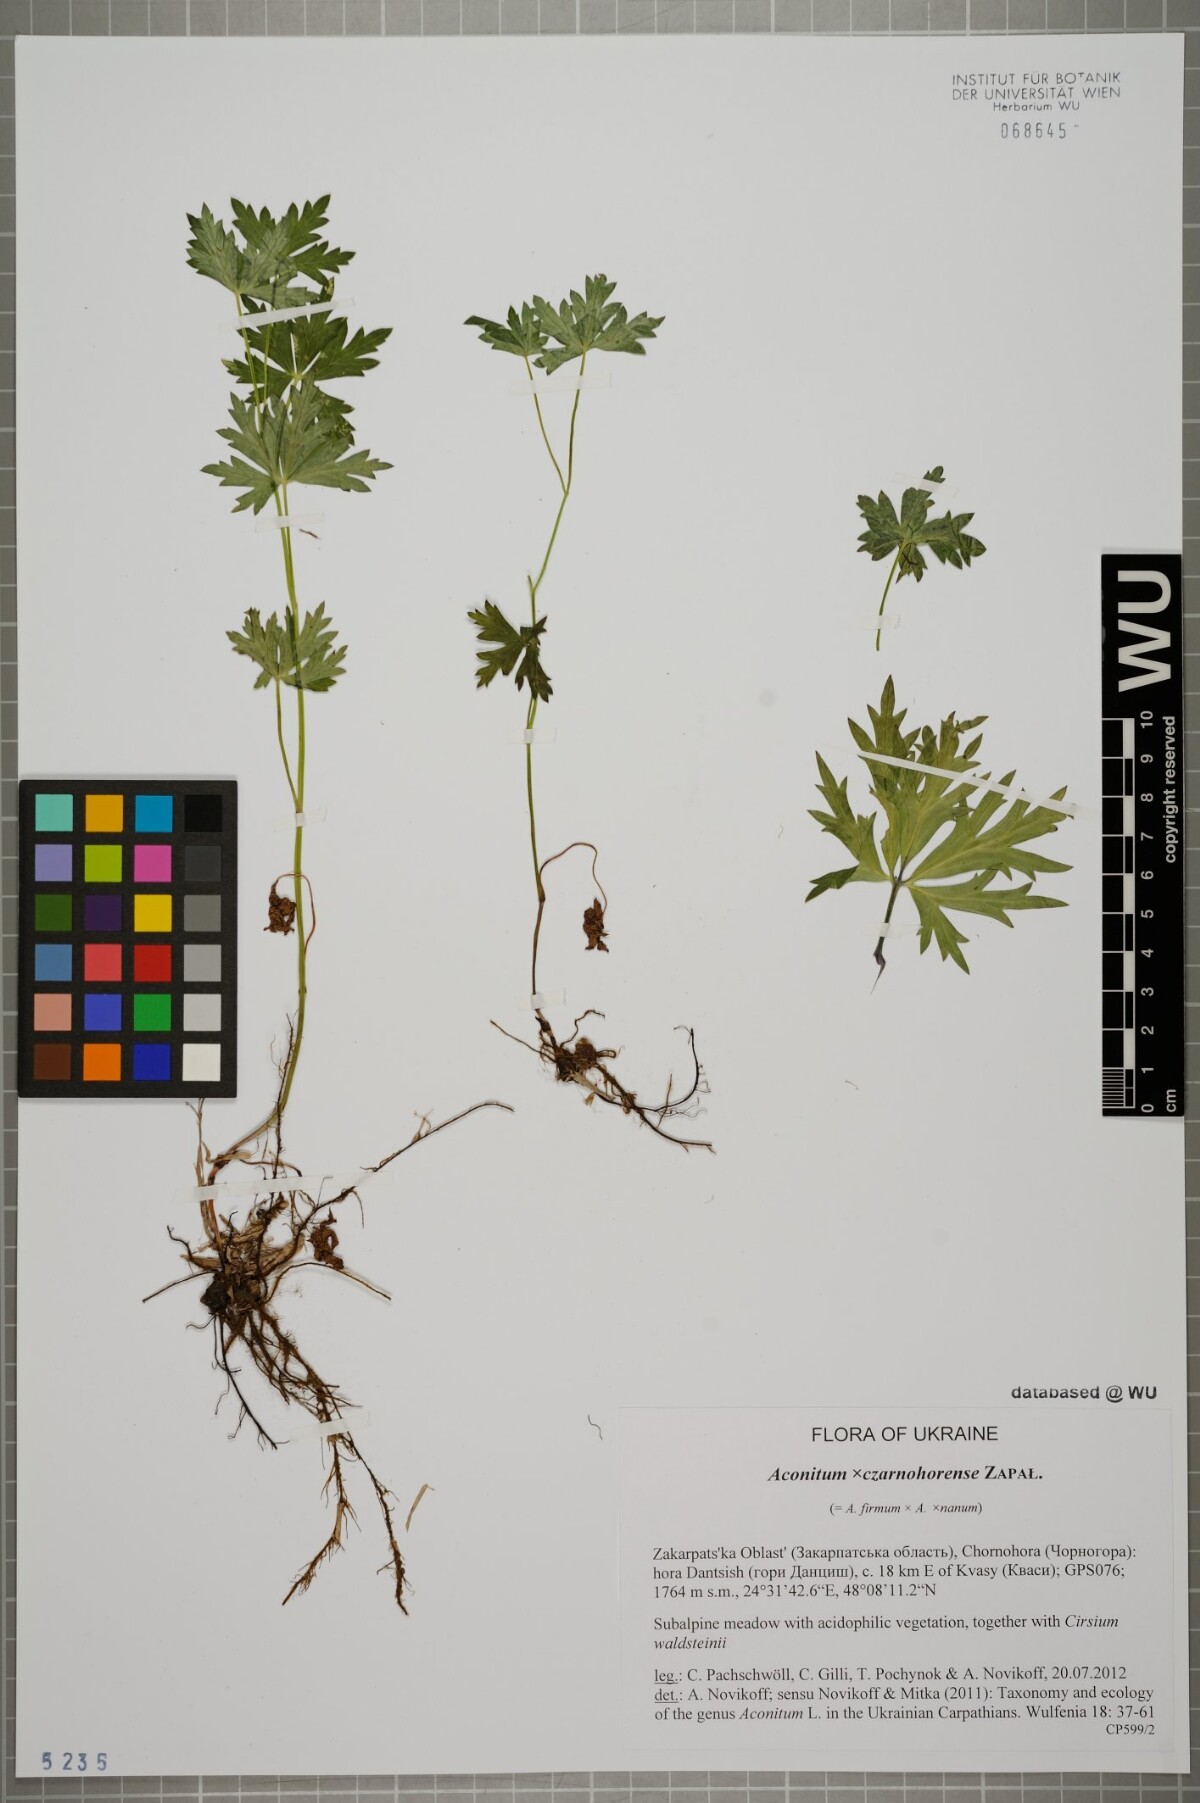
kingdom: Plantae
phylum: Tracheophyta
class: Magnoliopsida
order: Ranunculales
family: Ranunculaceae
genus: Aconitum
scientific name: Aconitum czarnohorense
